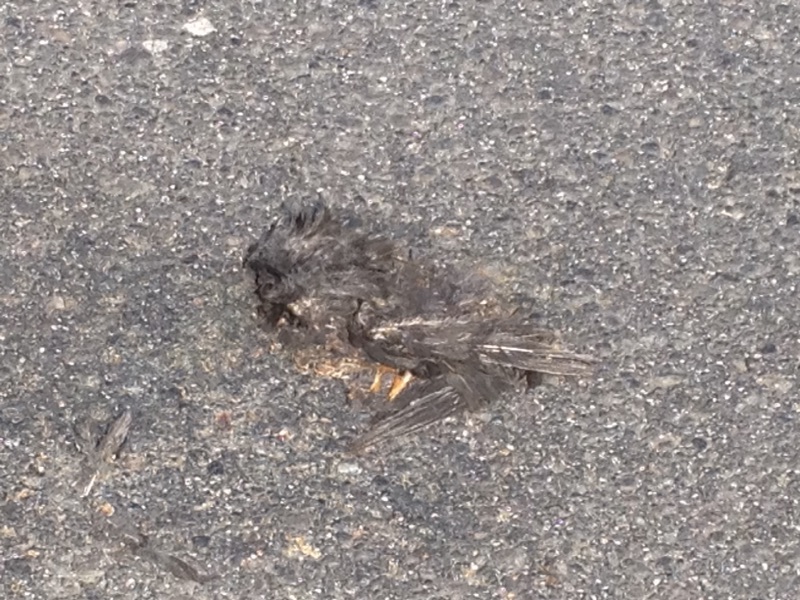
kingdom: Animalia
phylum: Chordata
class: Aves
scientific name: Aves
